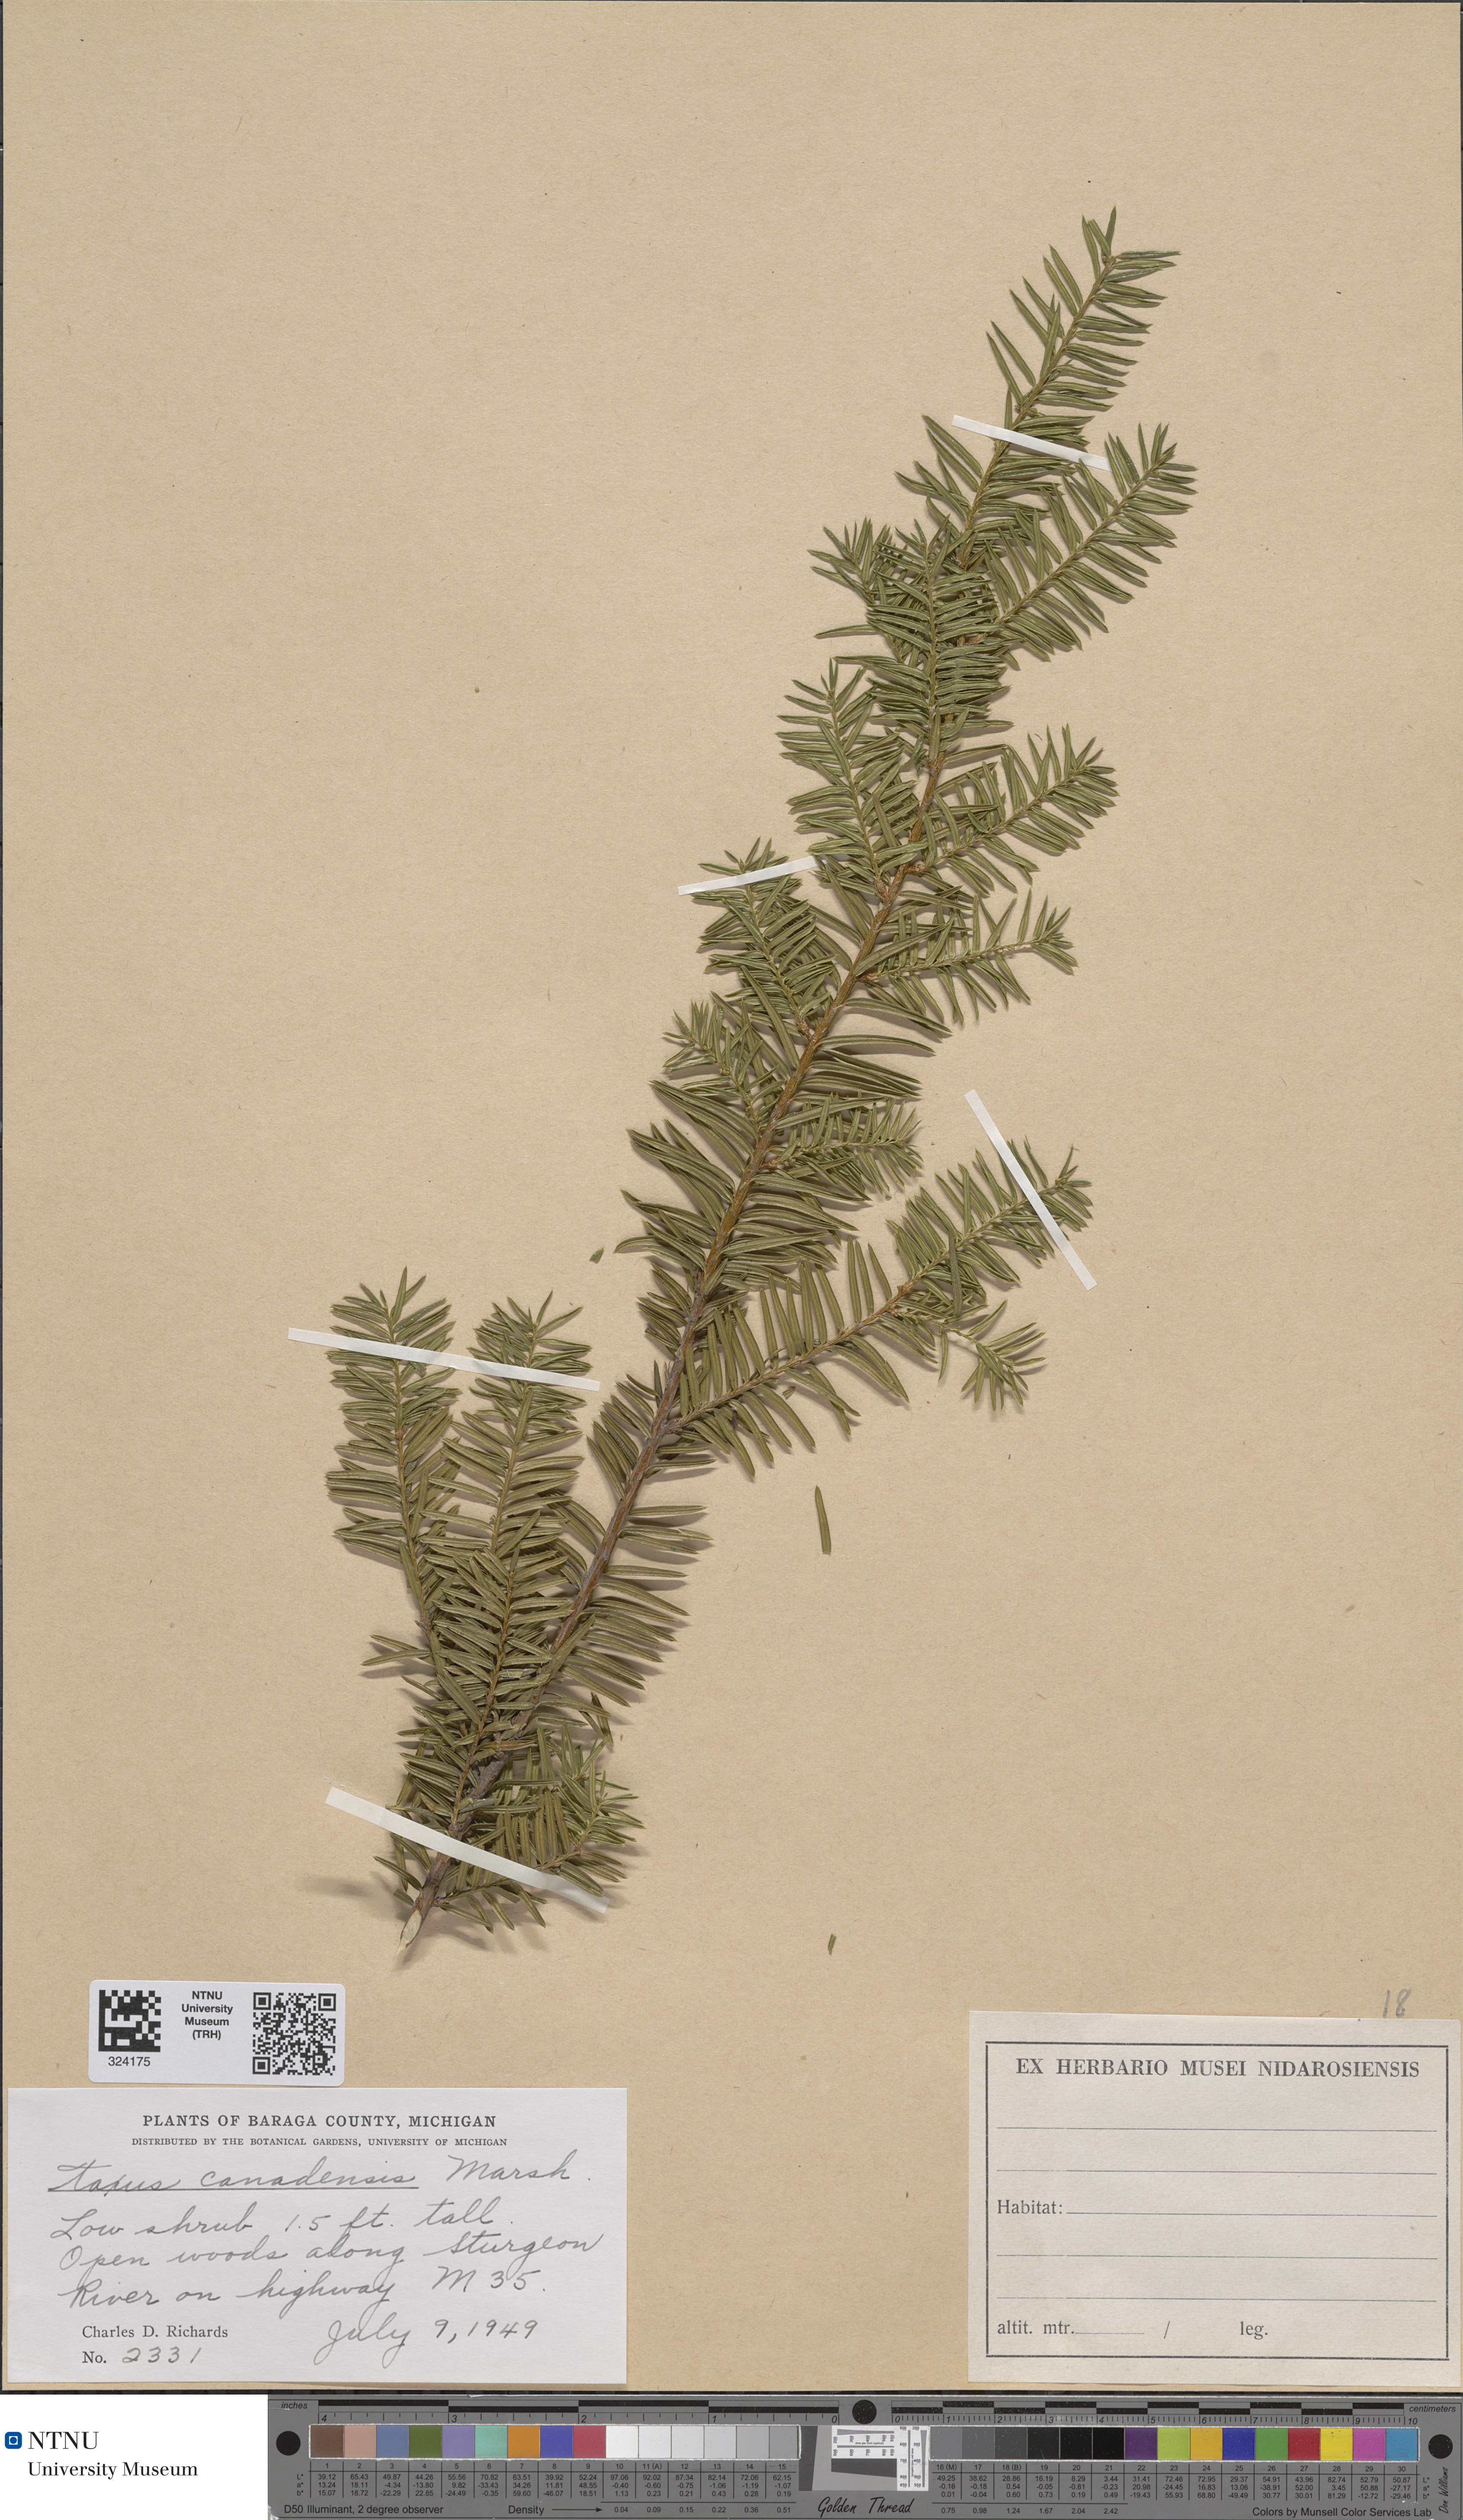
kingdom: Plantae
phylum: Tracheophyta
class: Pinopsida
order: Pinales
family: Taxaceae
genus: Taxus
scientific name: Taxus canadensis
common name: American yew
